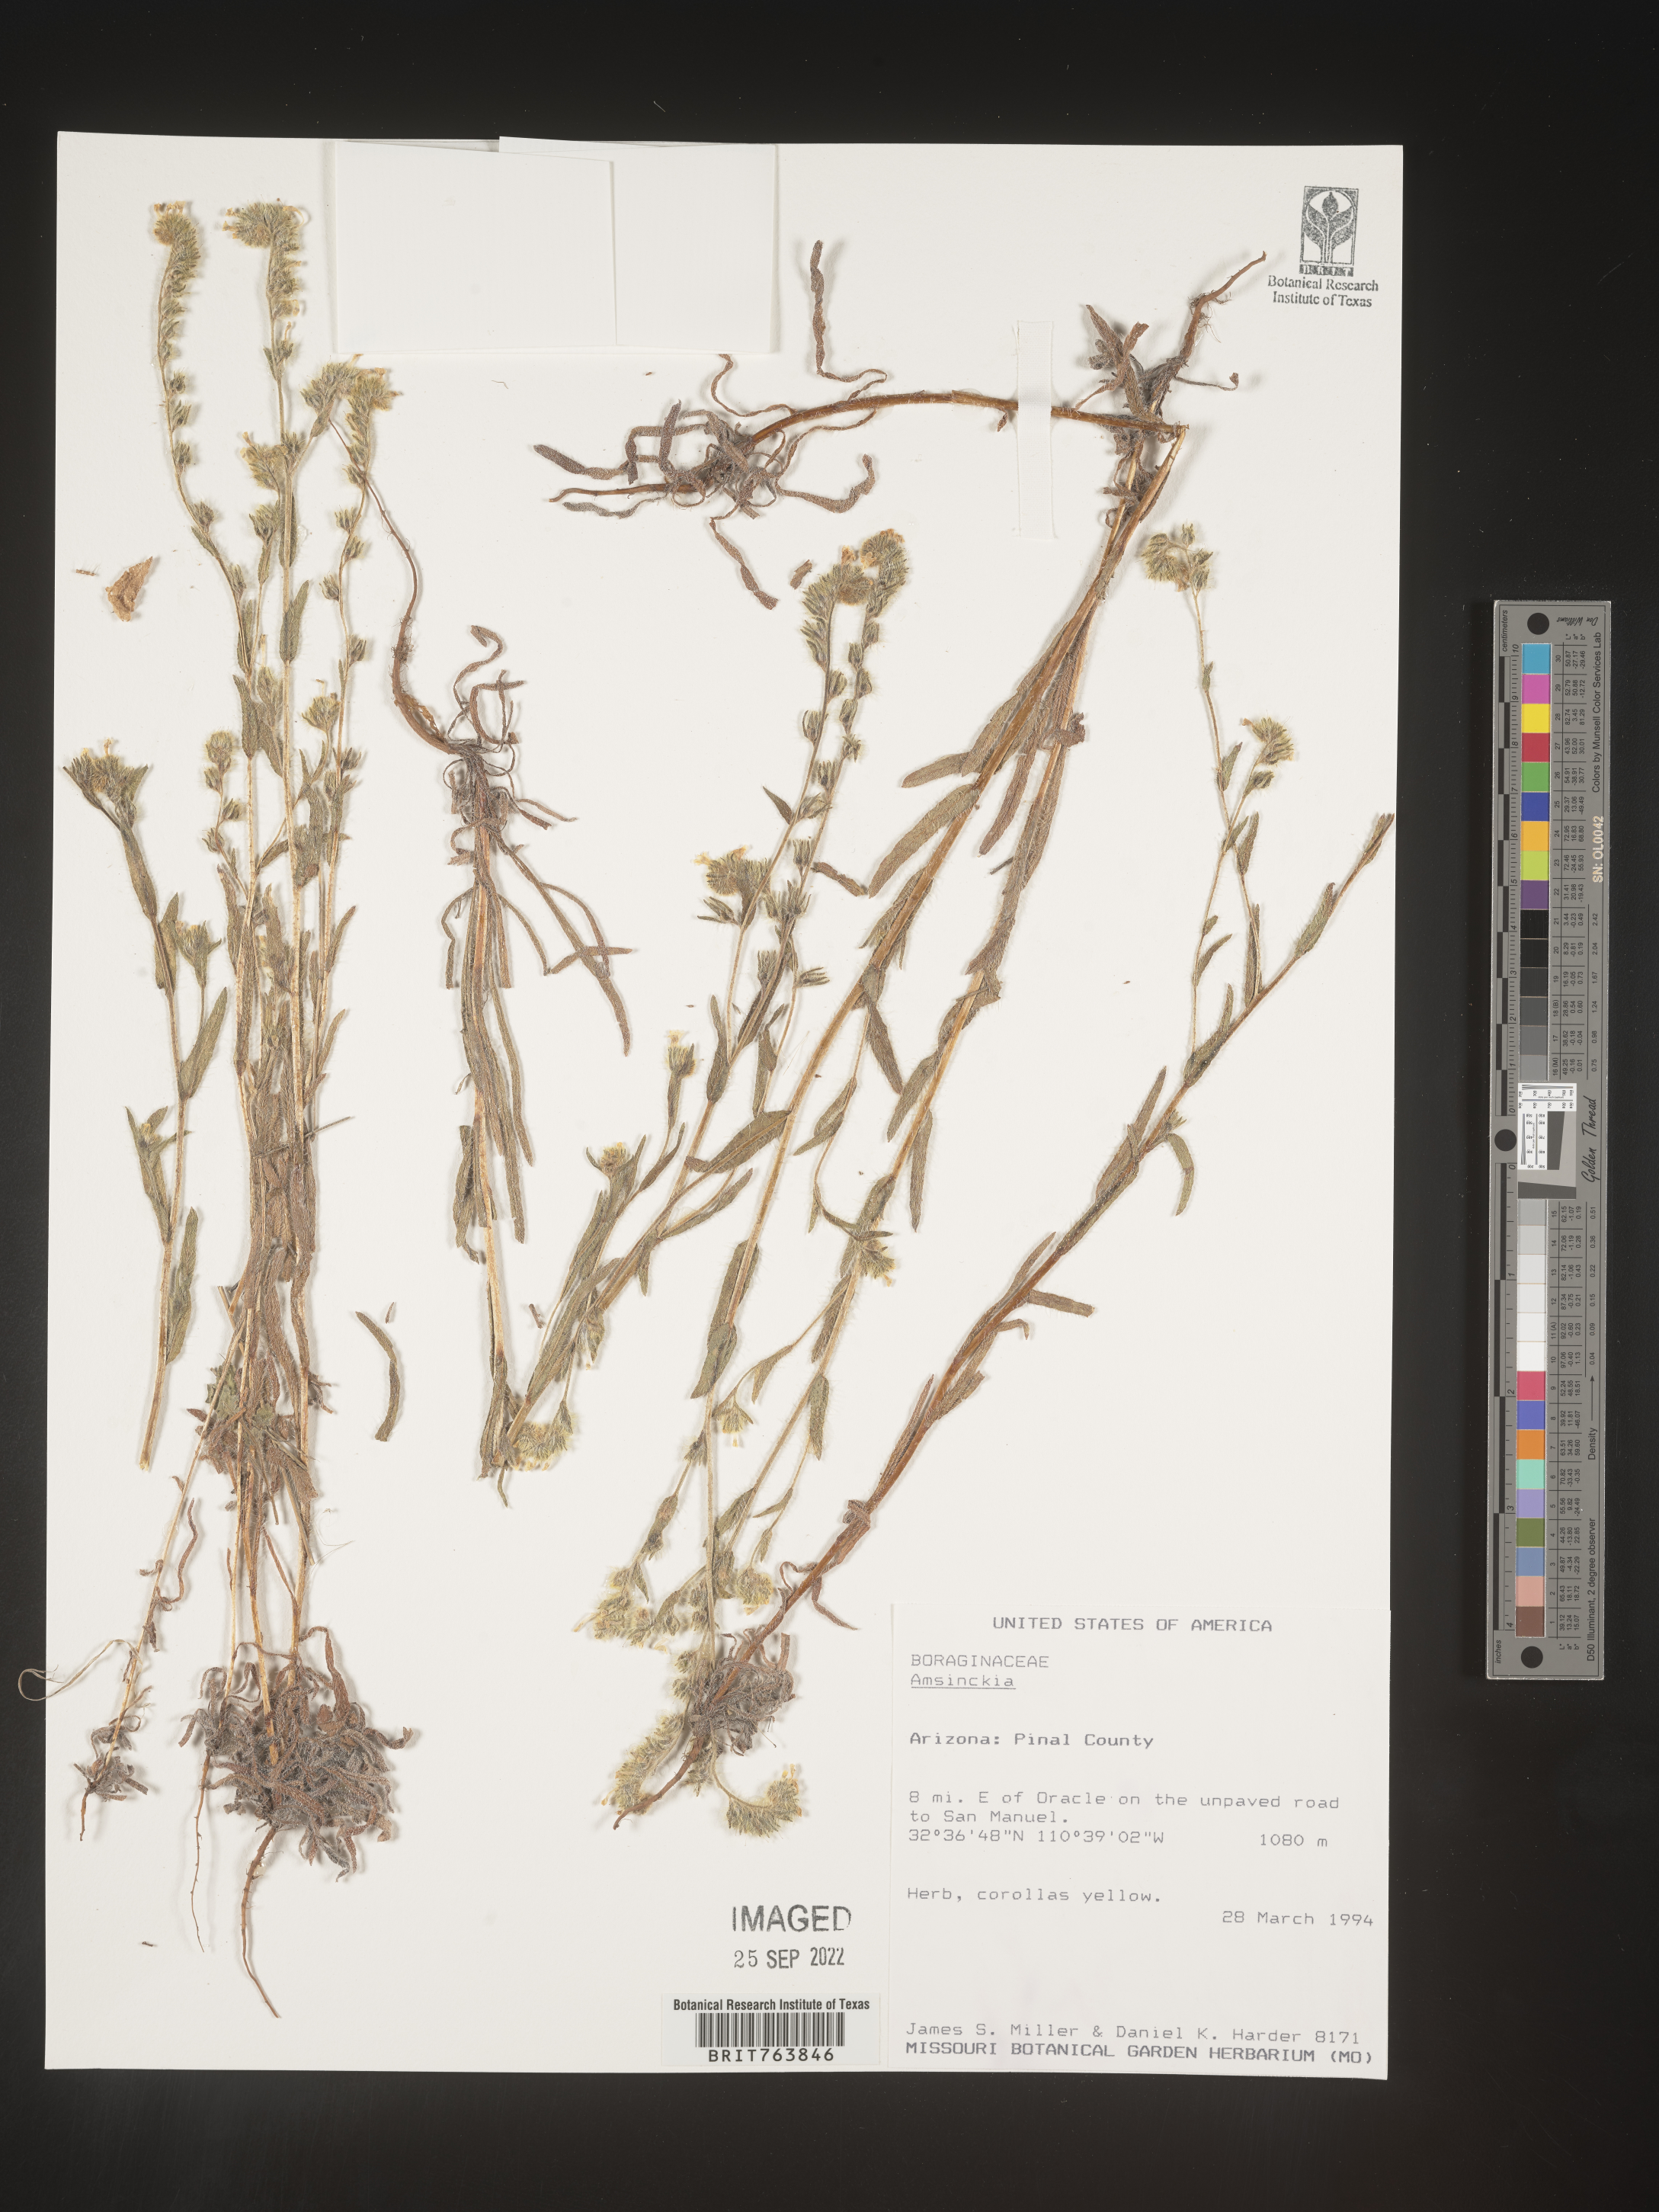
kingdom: Plantae
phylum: Tracheophyta
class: Magnoliopsida
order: Boraginales
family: Boraginaceae
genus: Amsinckia
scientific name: Amsinckia
